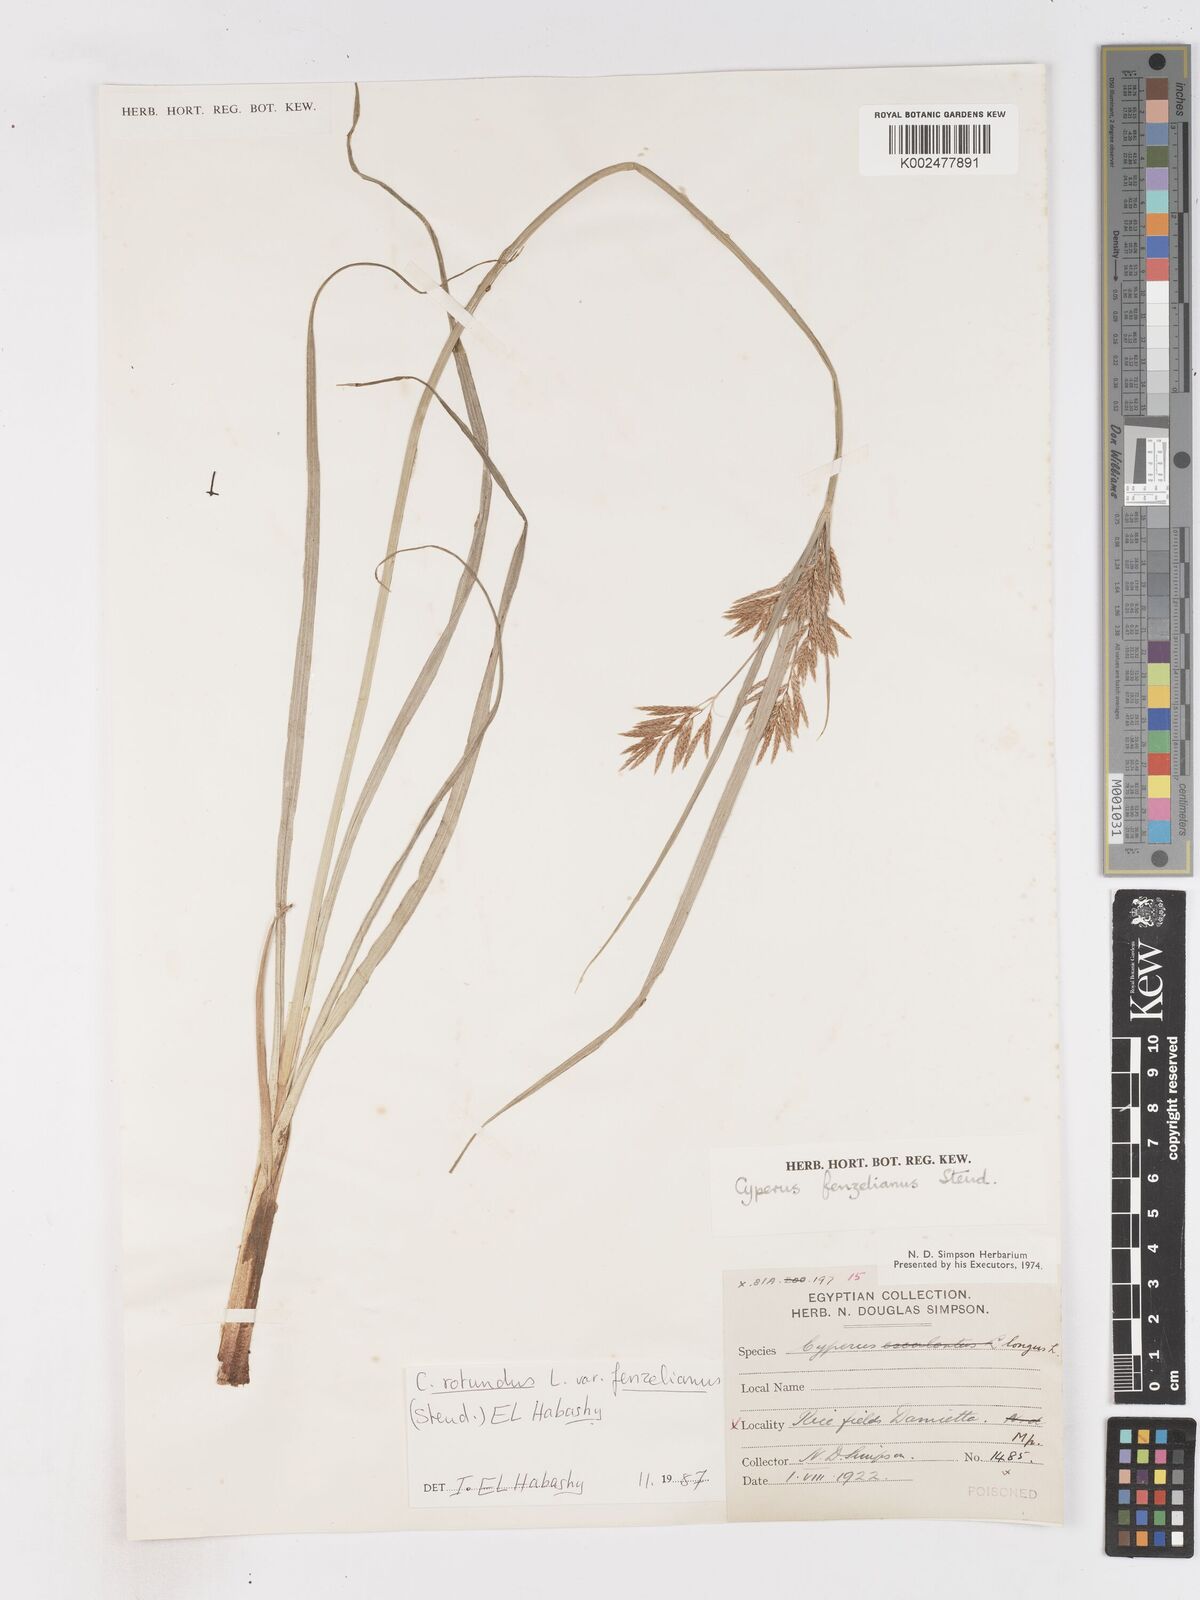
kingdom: Plantae
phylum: Tracheophyta
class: Liliopsida
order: Poales
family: Cyperaceae
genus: Cyperus
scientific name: Cyperus longus
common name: Galingale
